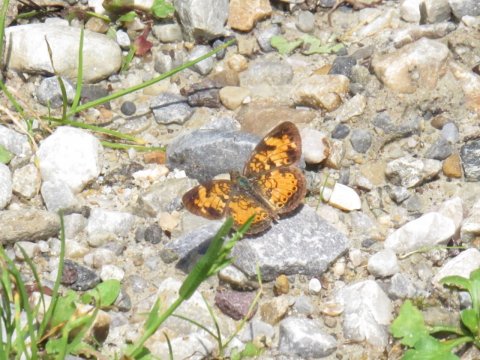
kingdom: Animalia
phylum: Arthropoda
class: Insecta
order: Lepidoptera
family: Nymphalidae
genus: Phyciodes
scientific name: Phyciodes
